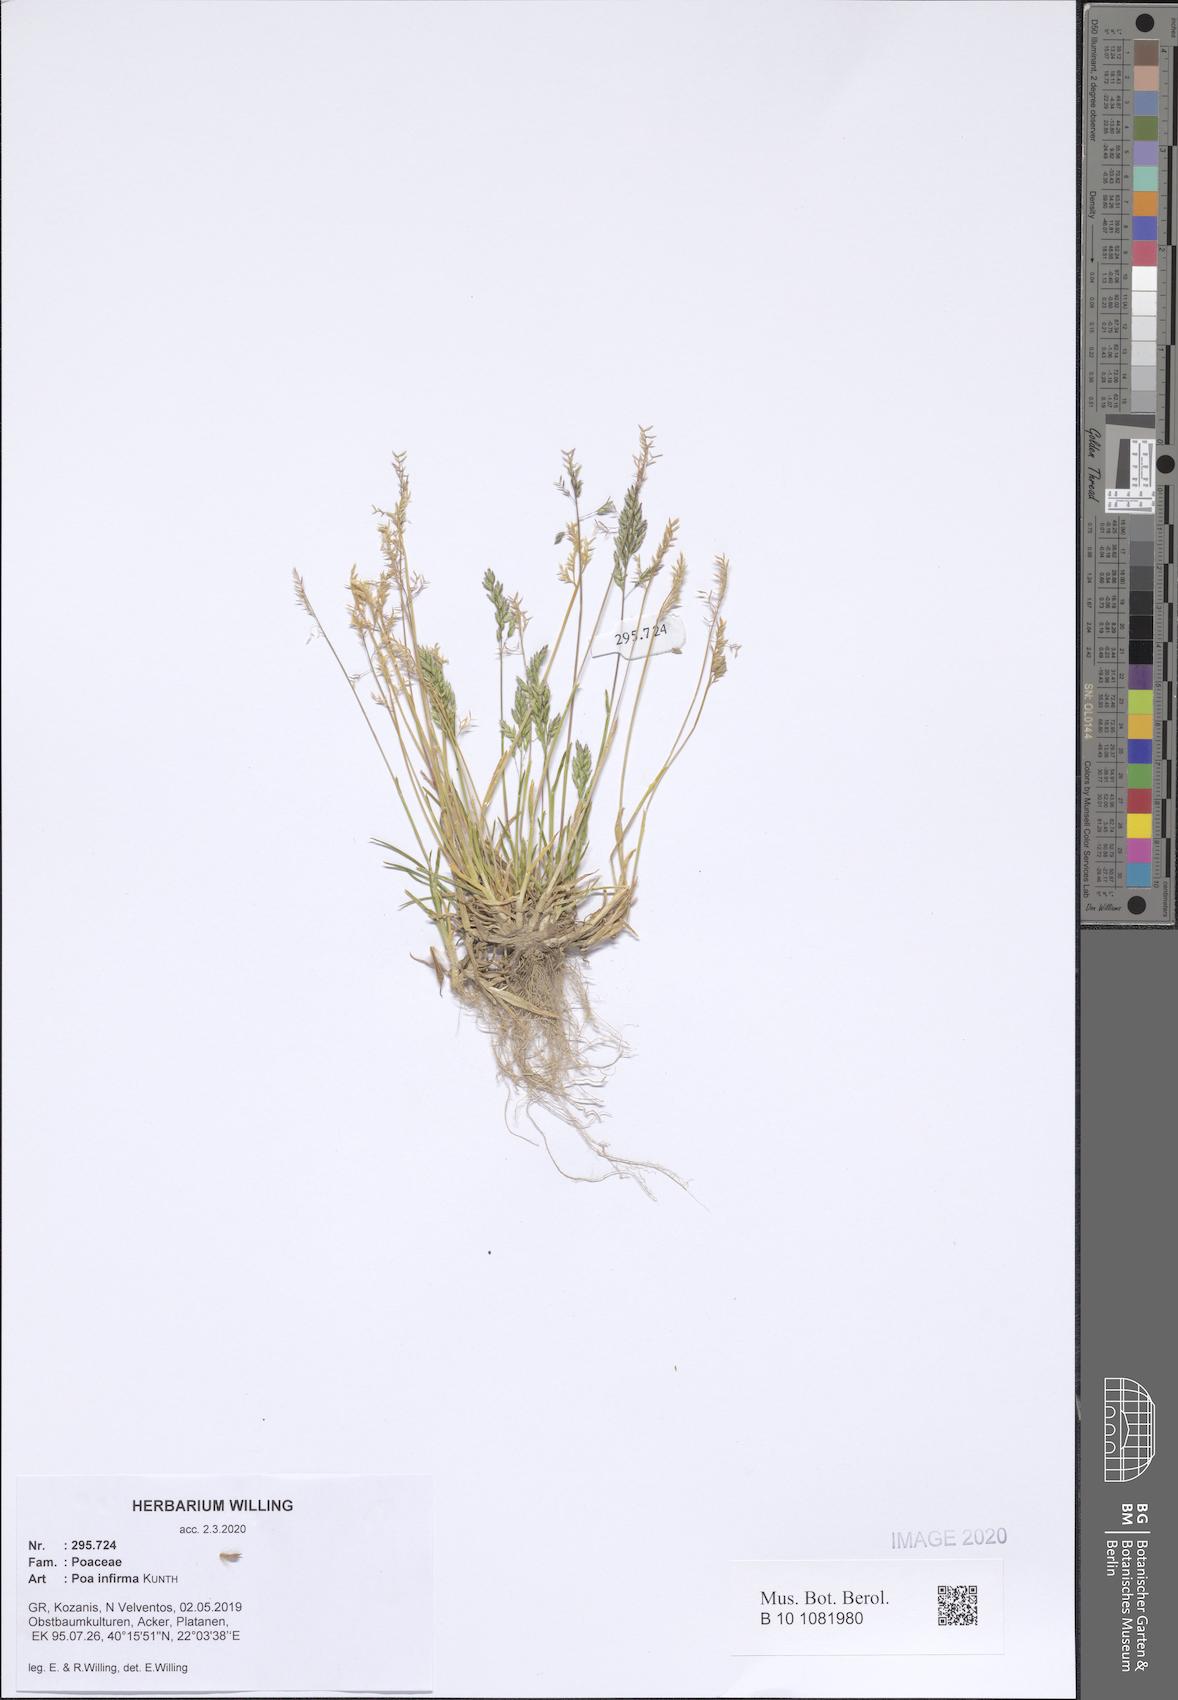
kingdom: Plantae
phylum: Tracheophyta
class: Liliopsida
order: Poales
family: Poaceae
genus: Poa
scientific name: Poa infirma
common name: Weak bluegrass
